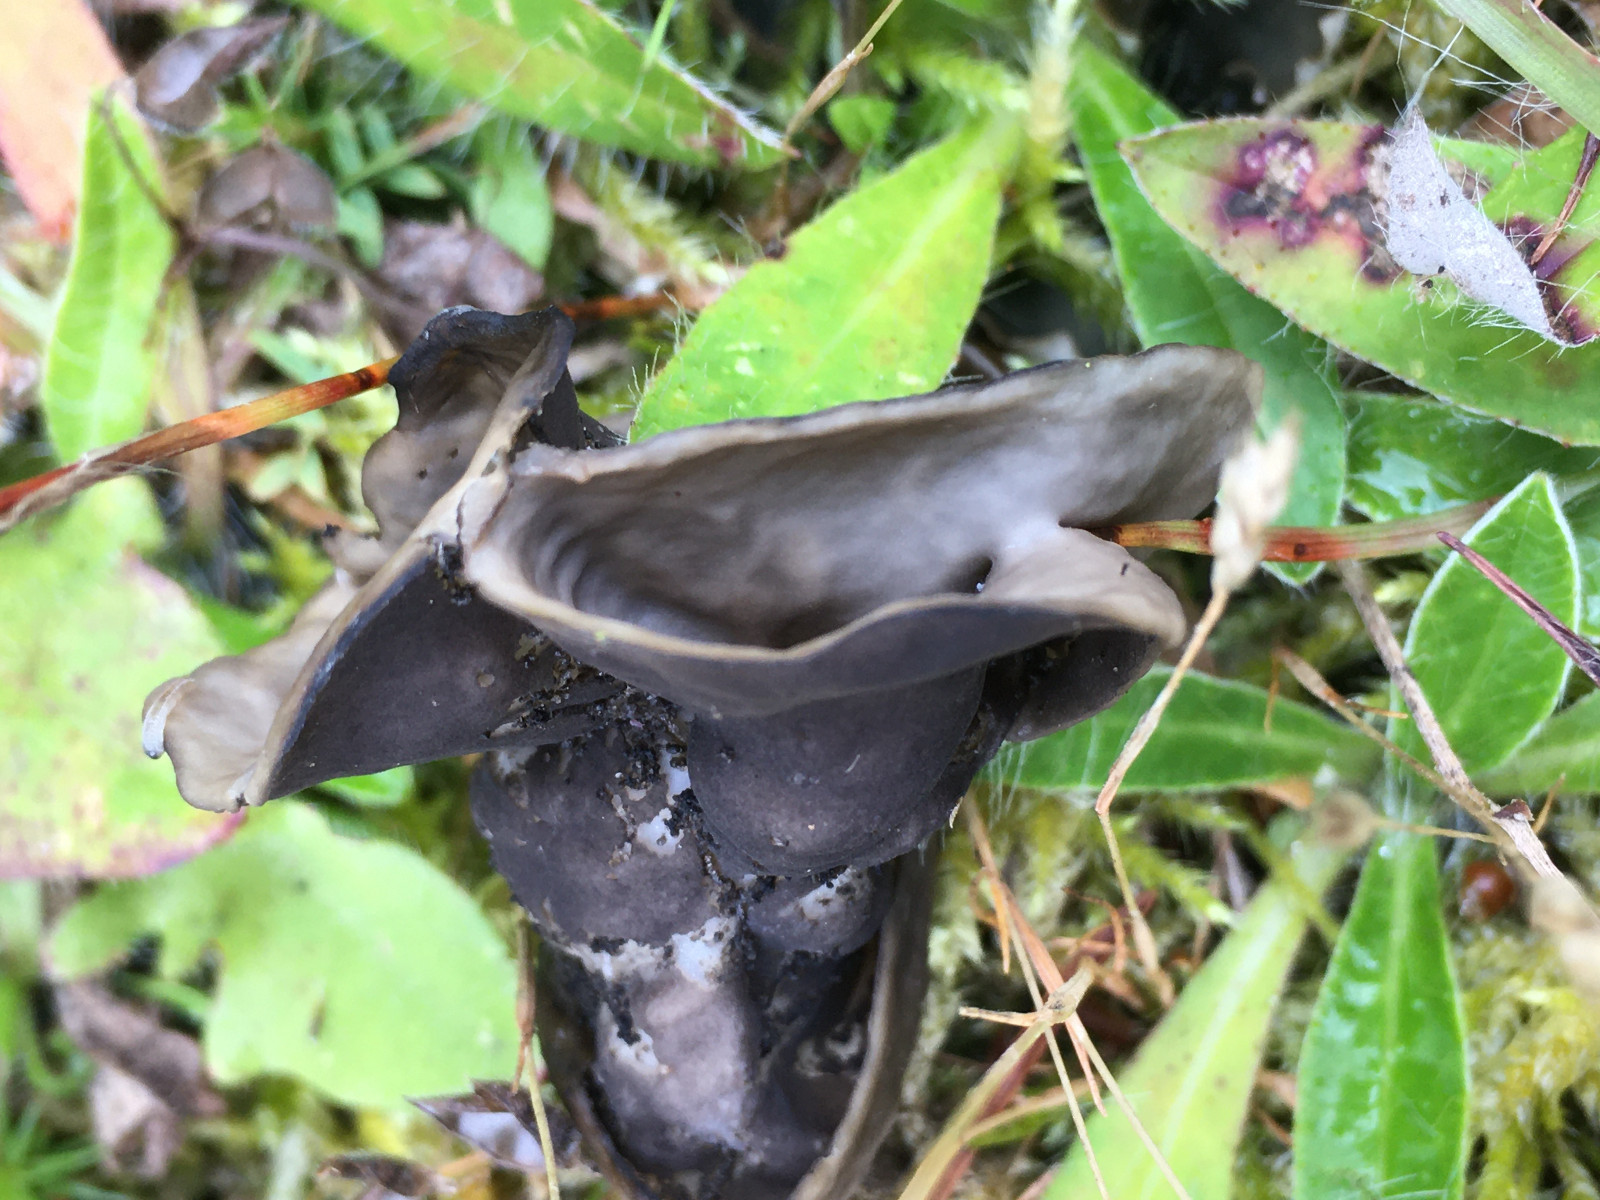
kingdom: Fungi
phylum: Ascomycota
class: Pezizomycetes
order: Pezizales
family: Helvellaceae
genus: Helvella
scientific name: Helvella lacunosa
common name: grubet foldhat
